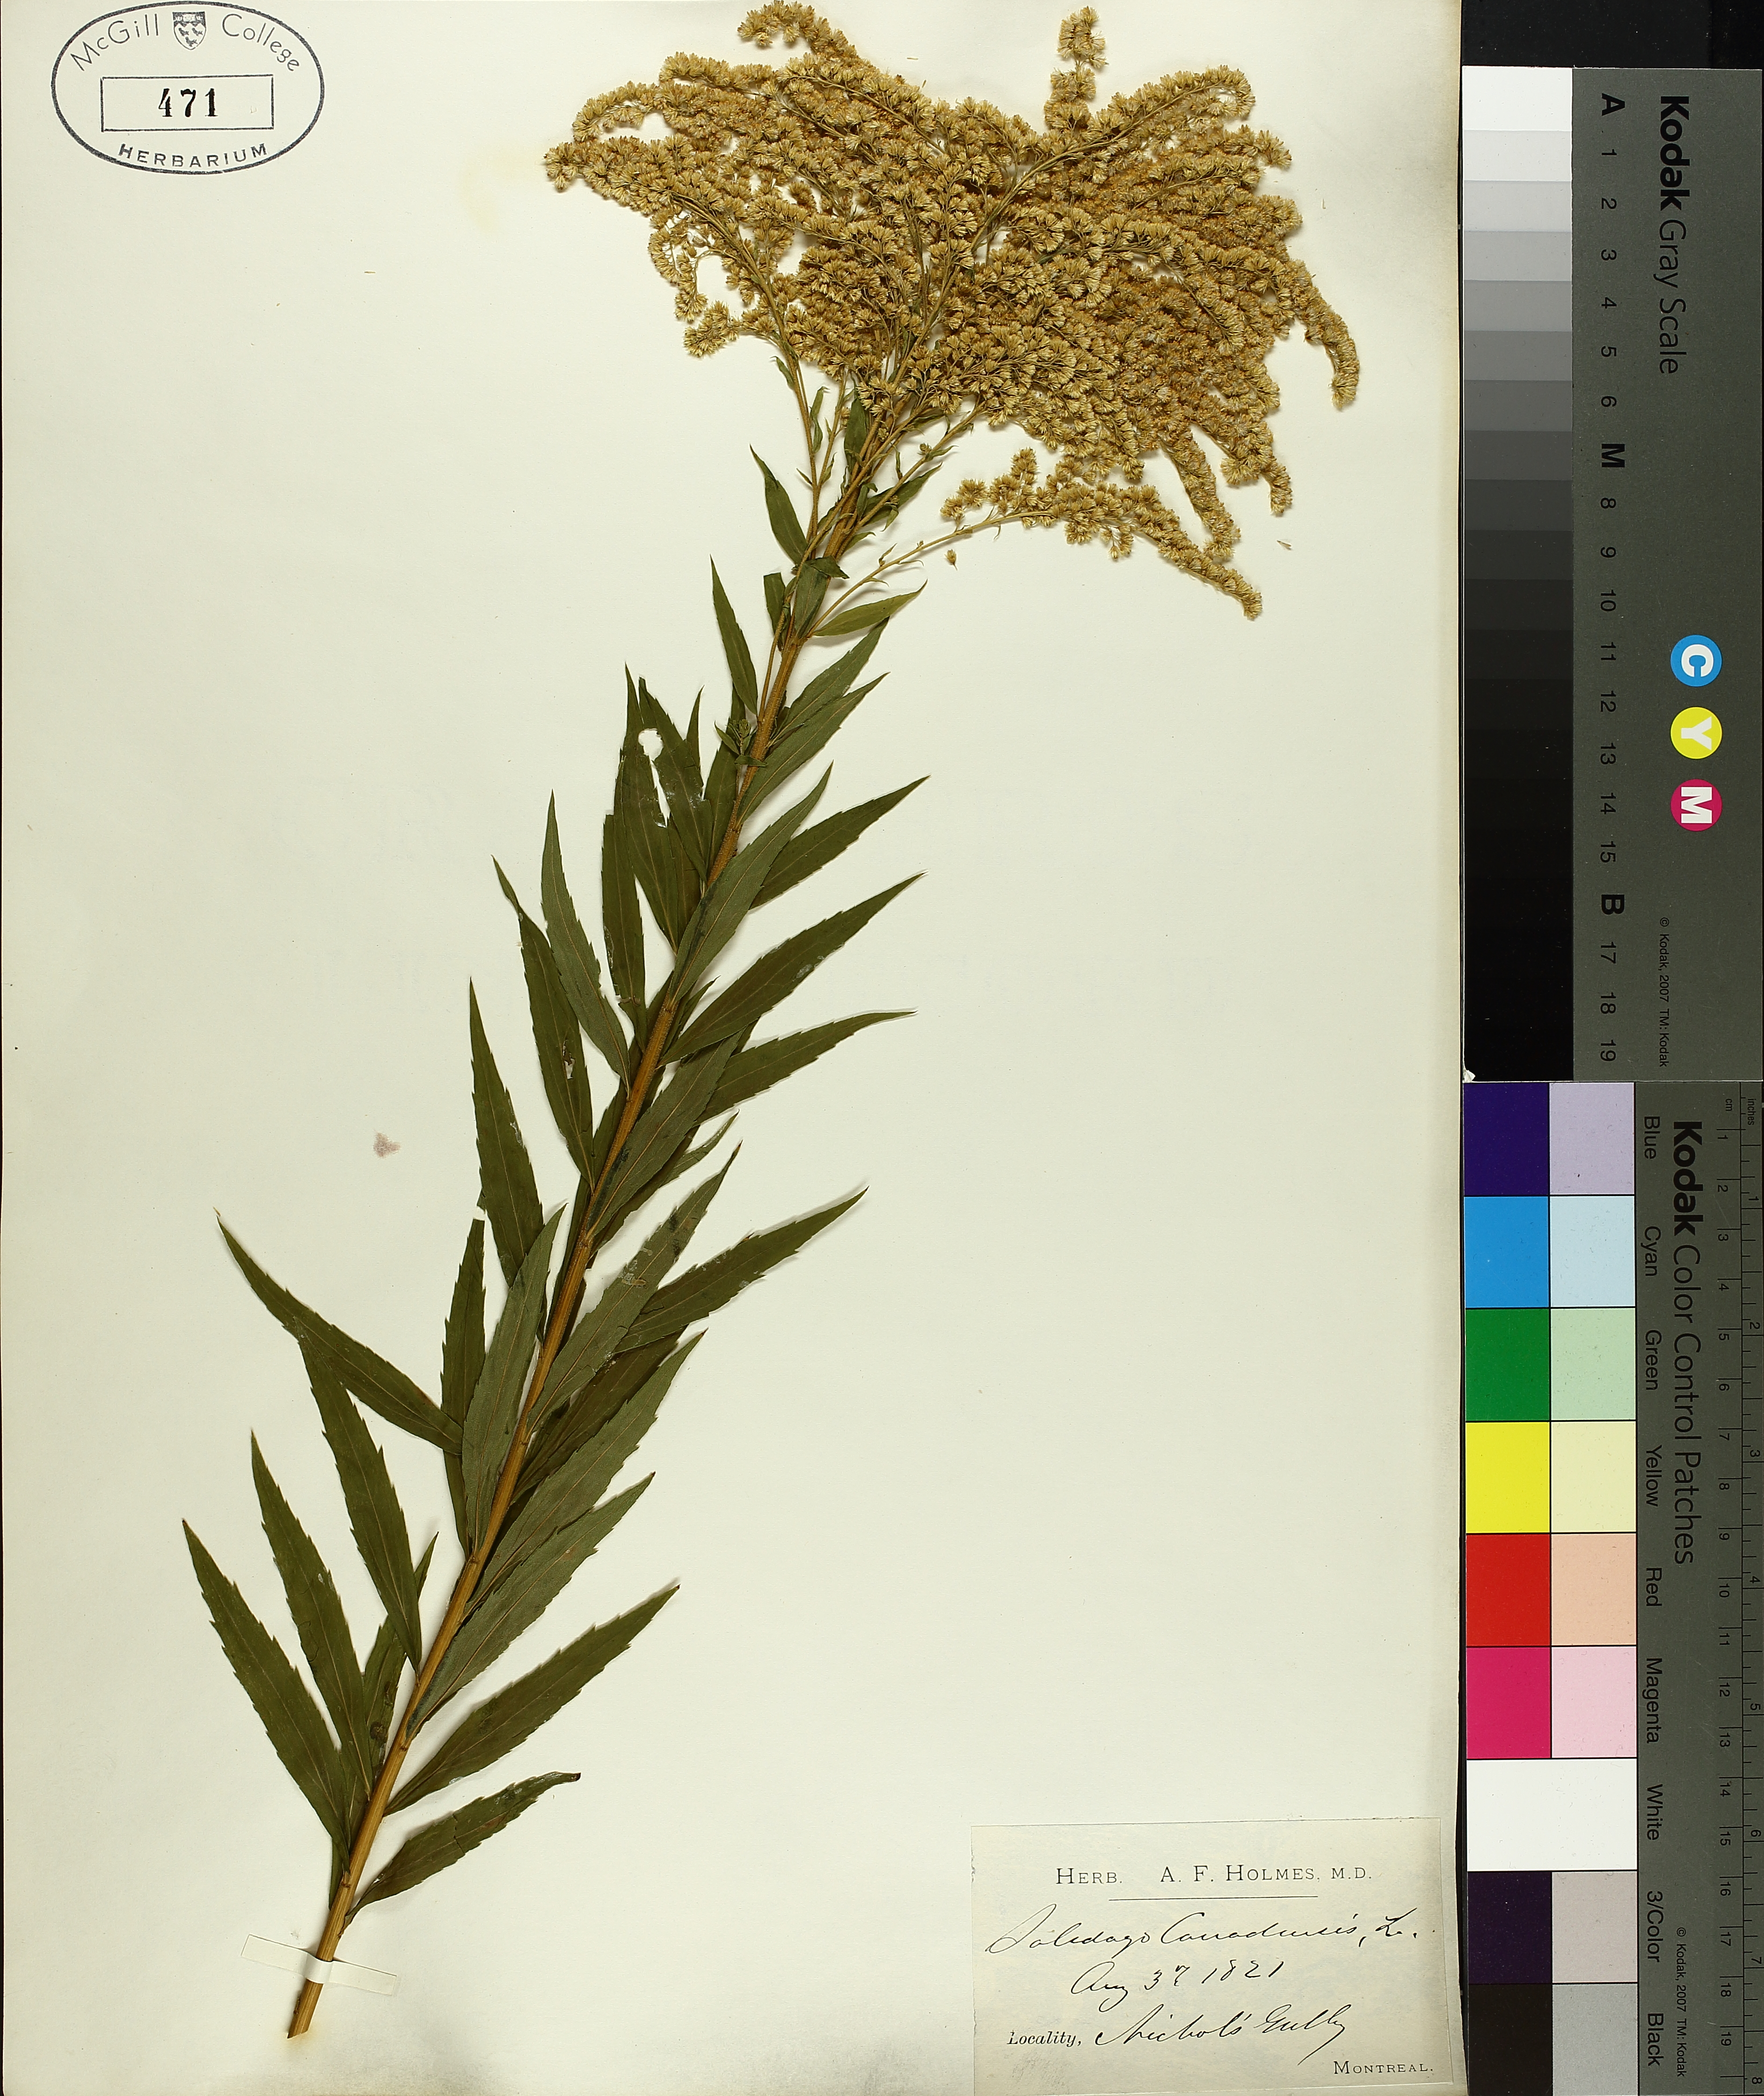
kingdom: Plantae
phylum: Tracheophyta
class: Magnoliopsida
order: Asterales
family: Asteraceae
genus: Solidago
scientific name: Solidago canadensis
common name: Canada goldenrod
